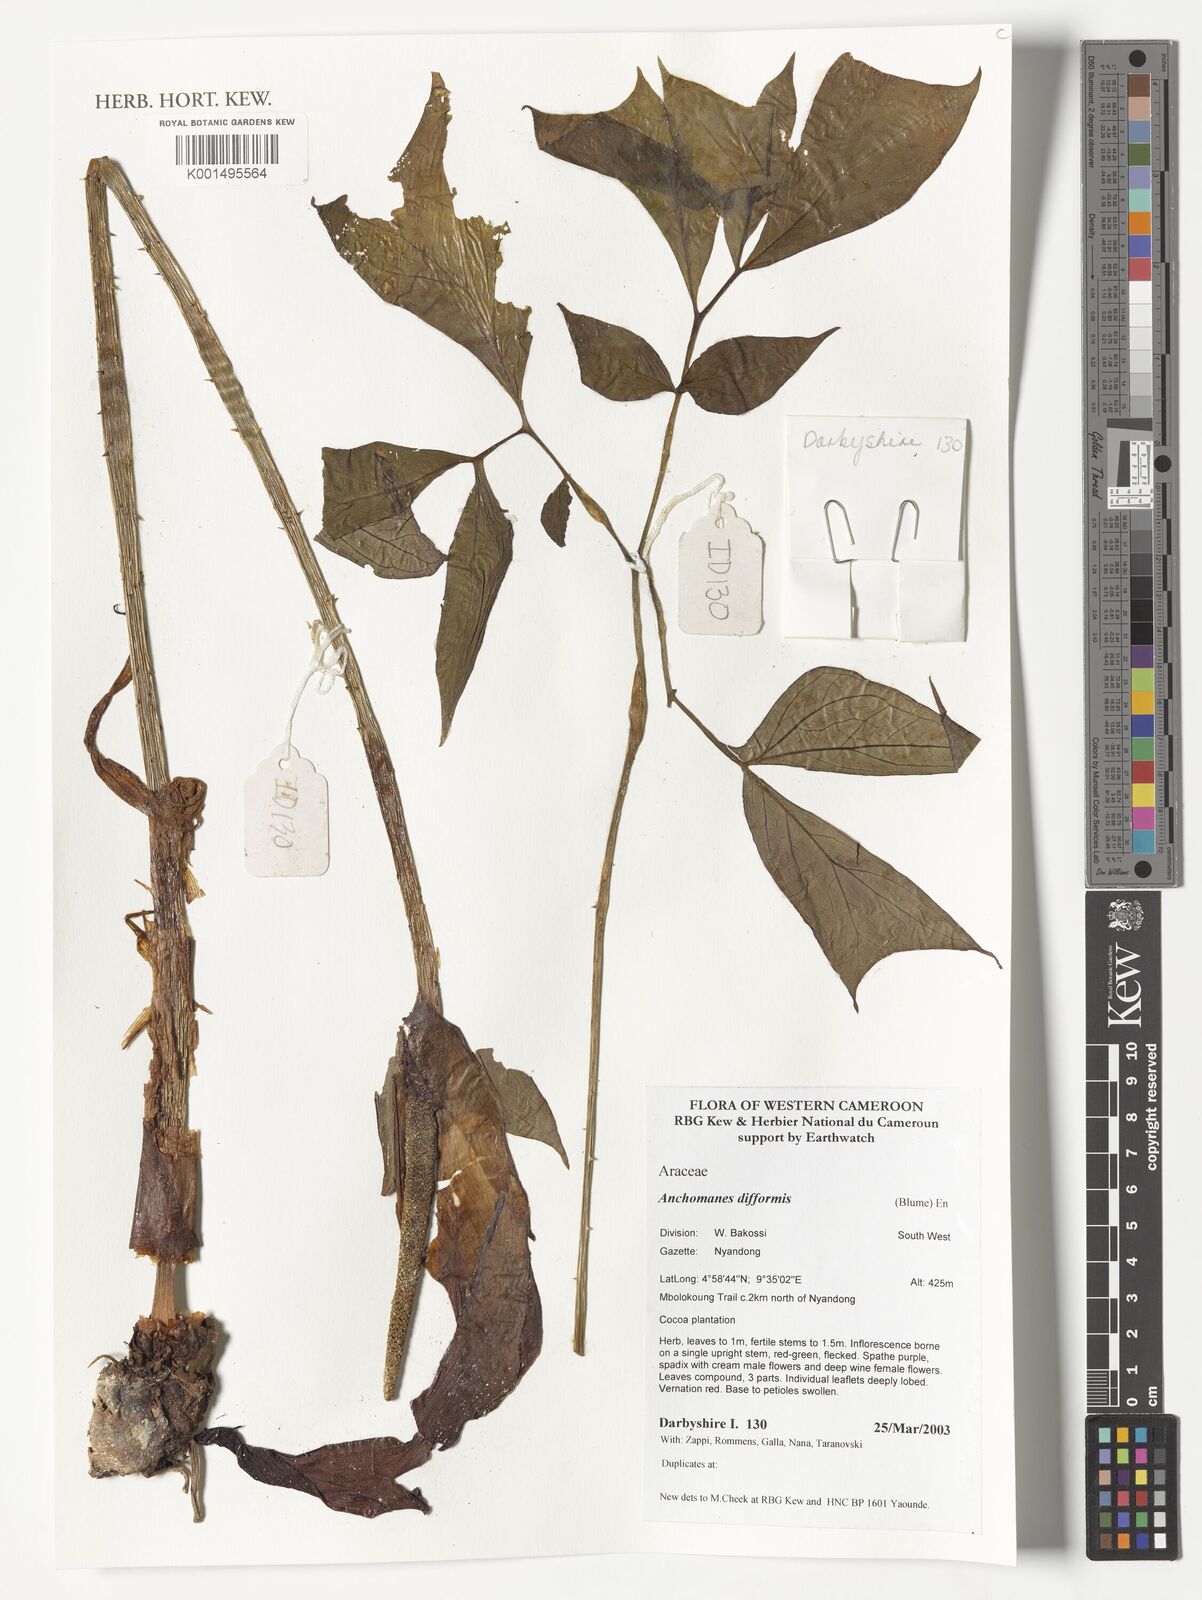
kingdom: Plantae
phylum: Tracheophyta
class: Liliopsida
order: Alismatales
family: Araceae
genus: Anchomanes
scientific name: Anchomanes difformis
